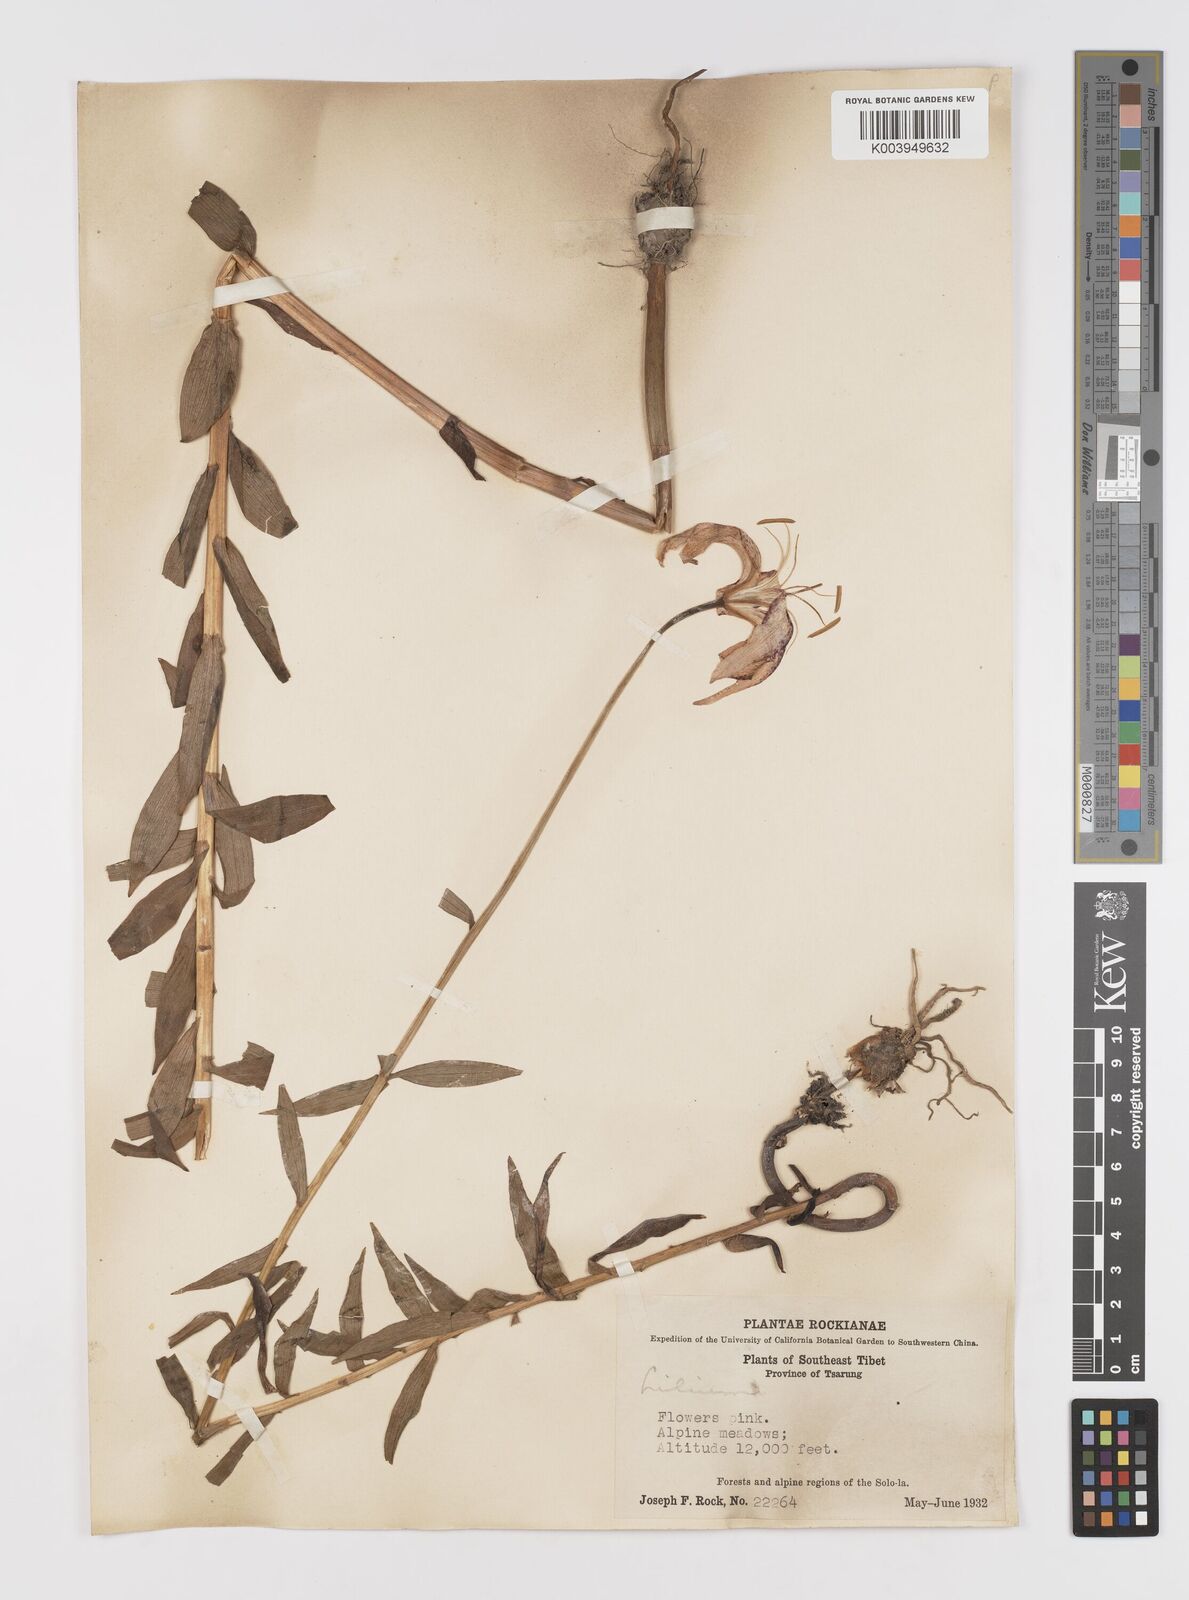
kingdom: Plantae
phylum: Tracheophyta
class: Liliopsida
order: Liliales
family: Liliaceae
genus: Lilium
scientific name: Lilium
